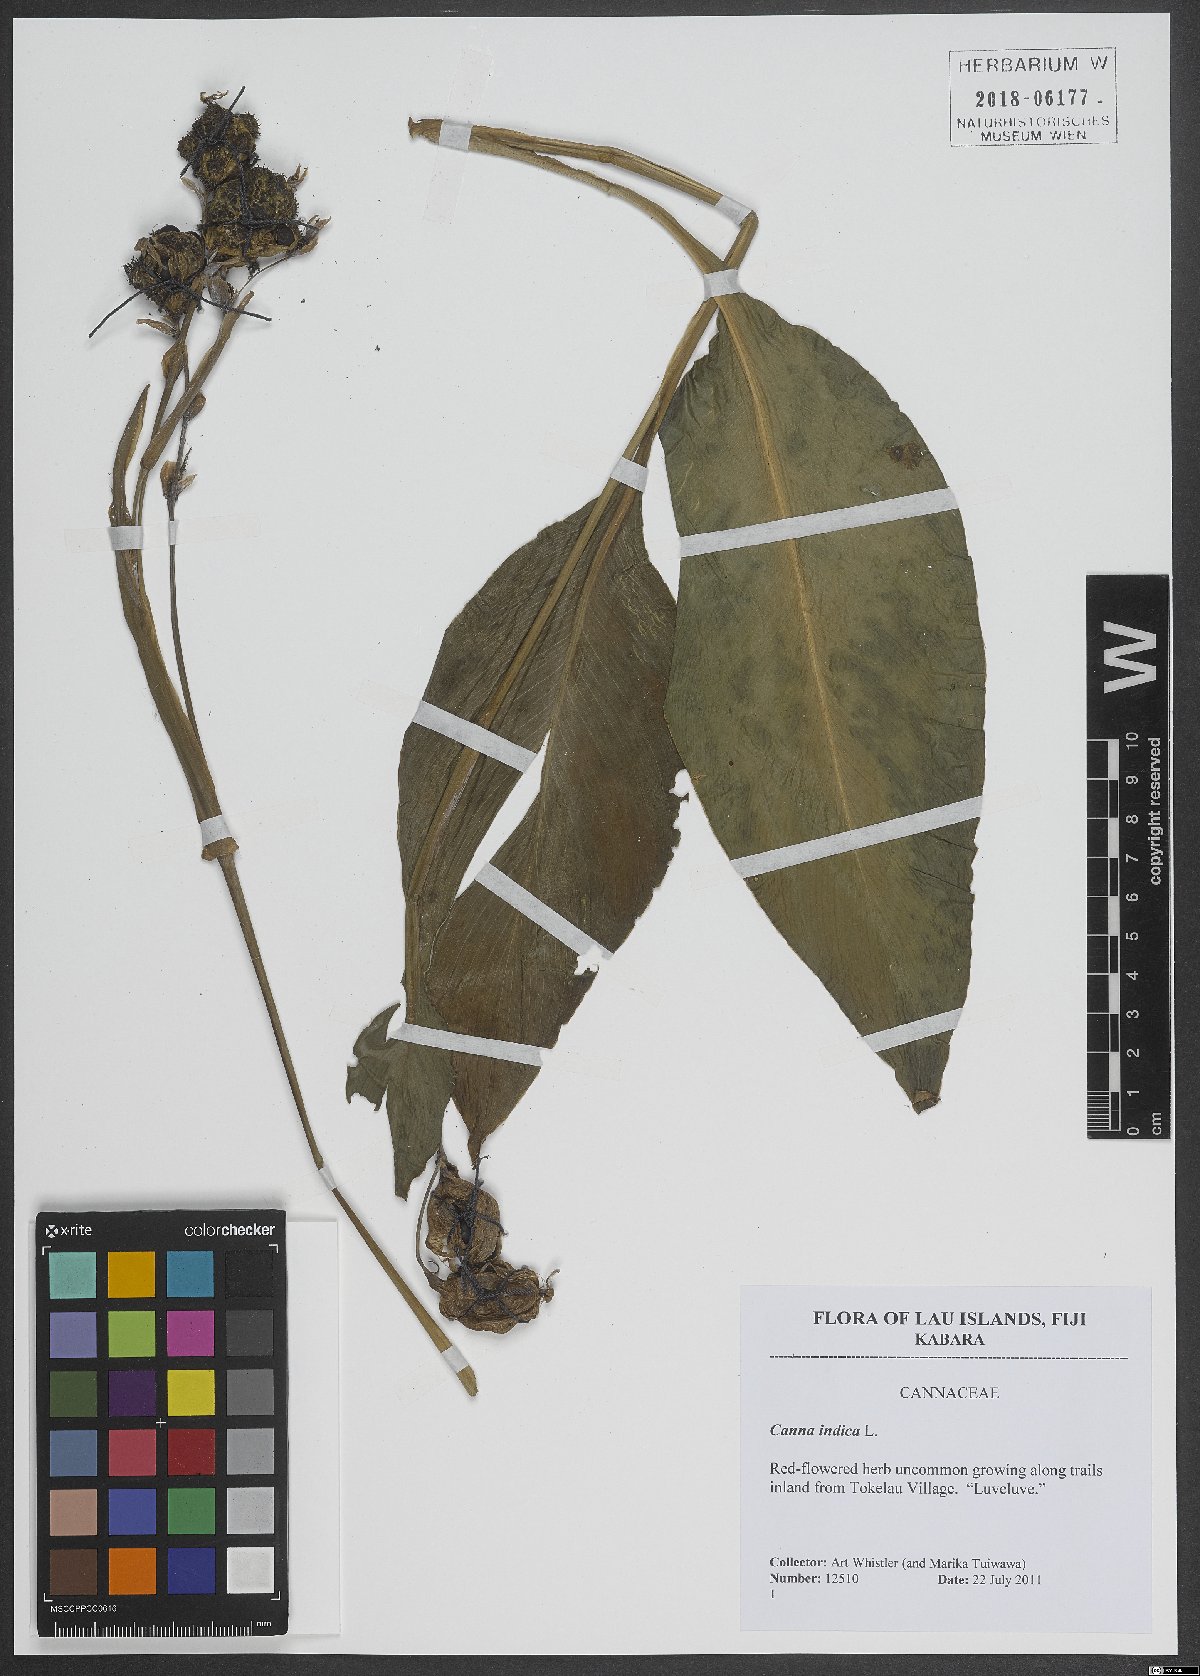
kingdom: Plantae
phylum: Tracheophyta
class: Liliopsida
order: Zingiberales
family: Cannaceae
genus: Canna
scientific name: Canna indica
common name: Indian shot
